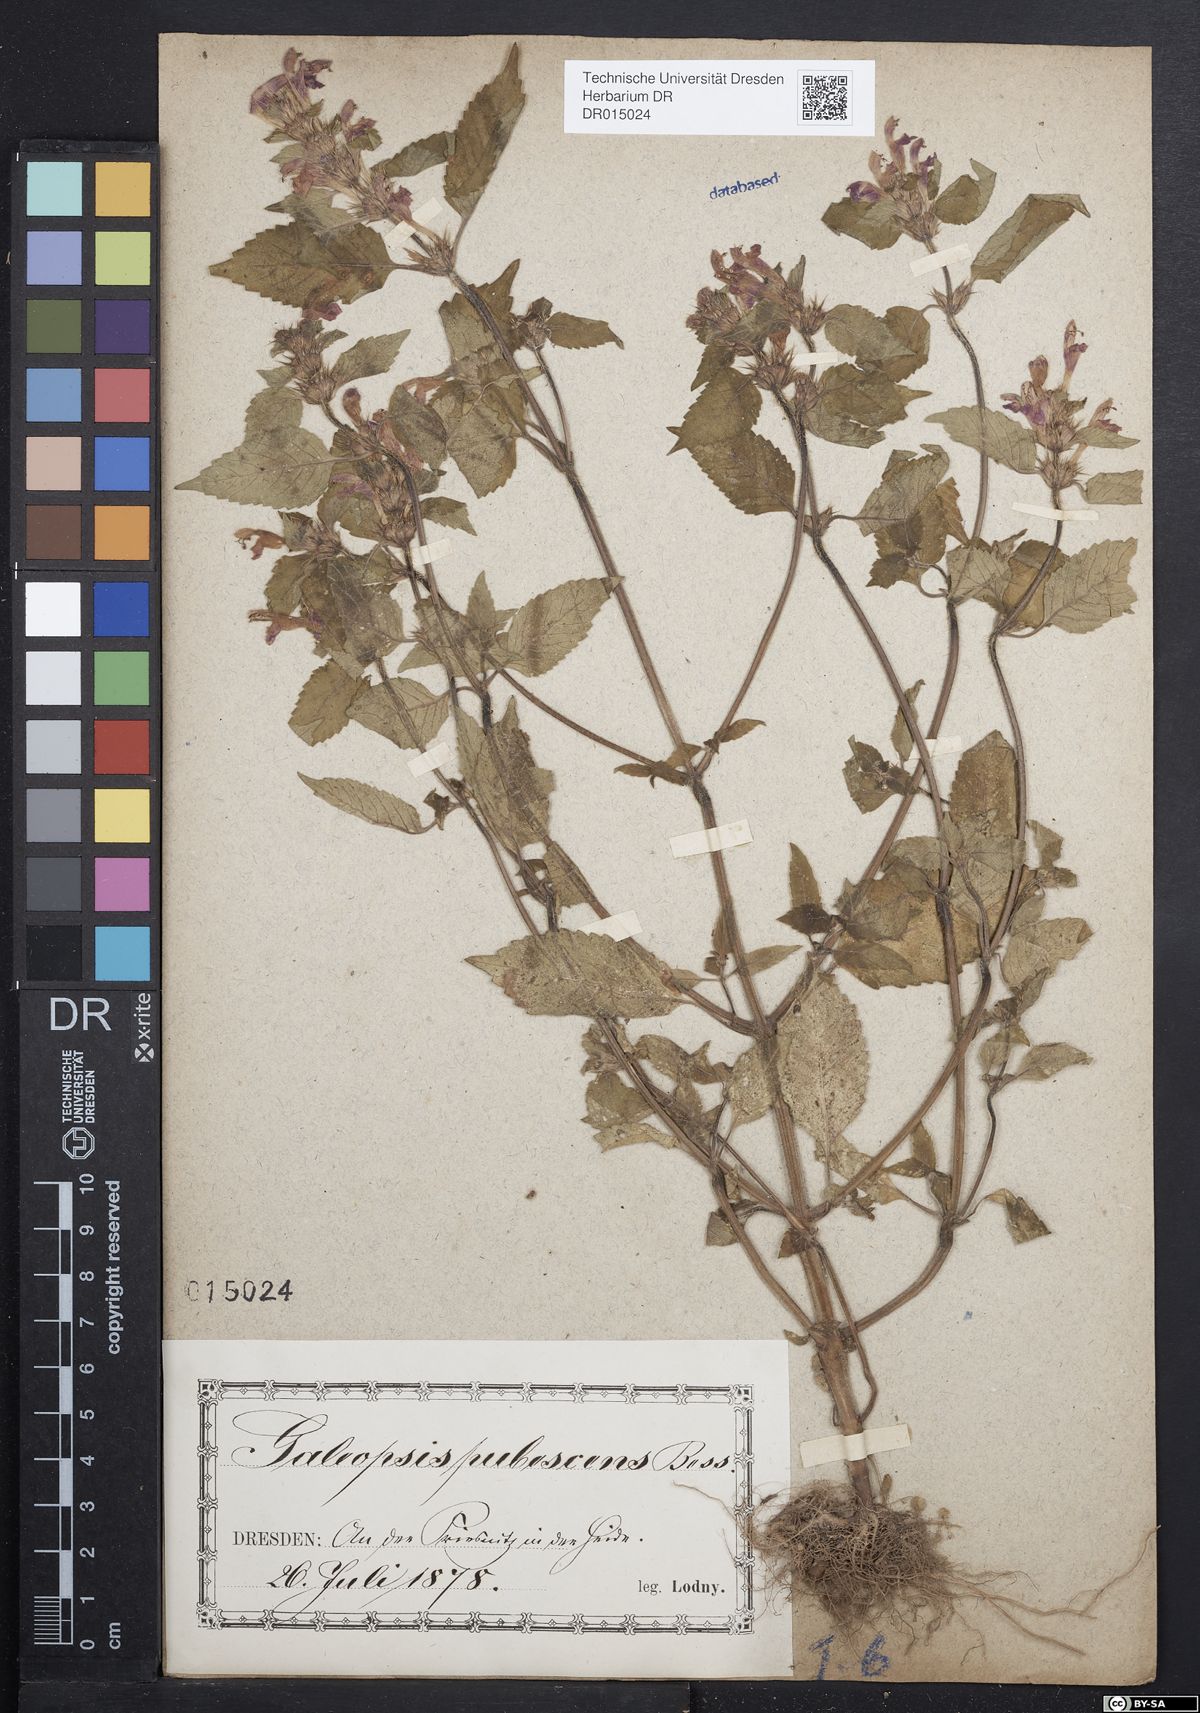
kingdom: Plantae
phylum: Tracheophyta
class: Magnoliopsida
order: Lamiales
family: Lamiaceae
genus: Galeopsis
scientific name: Galeopsis pubescens
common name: Downy hemp-nettle
